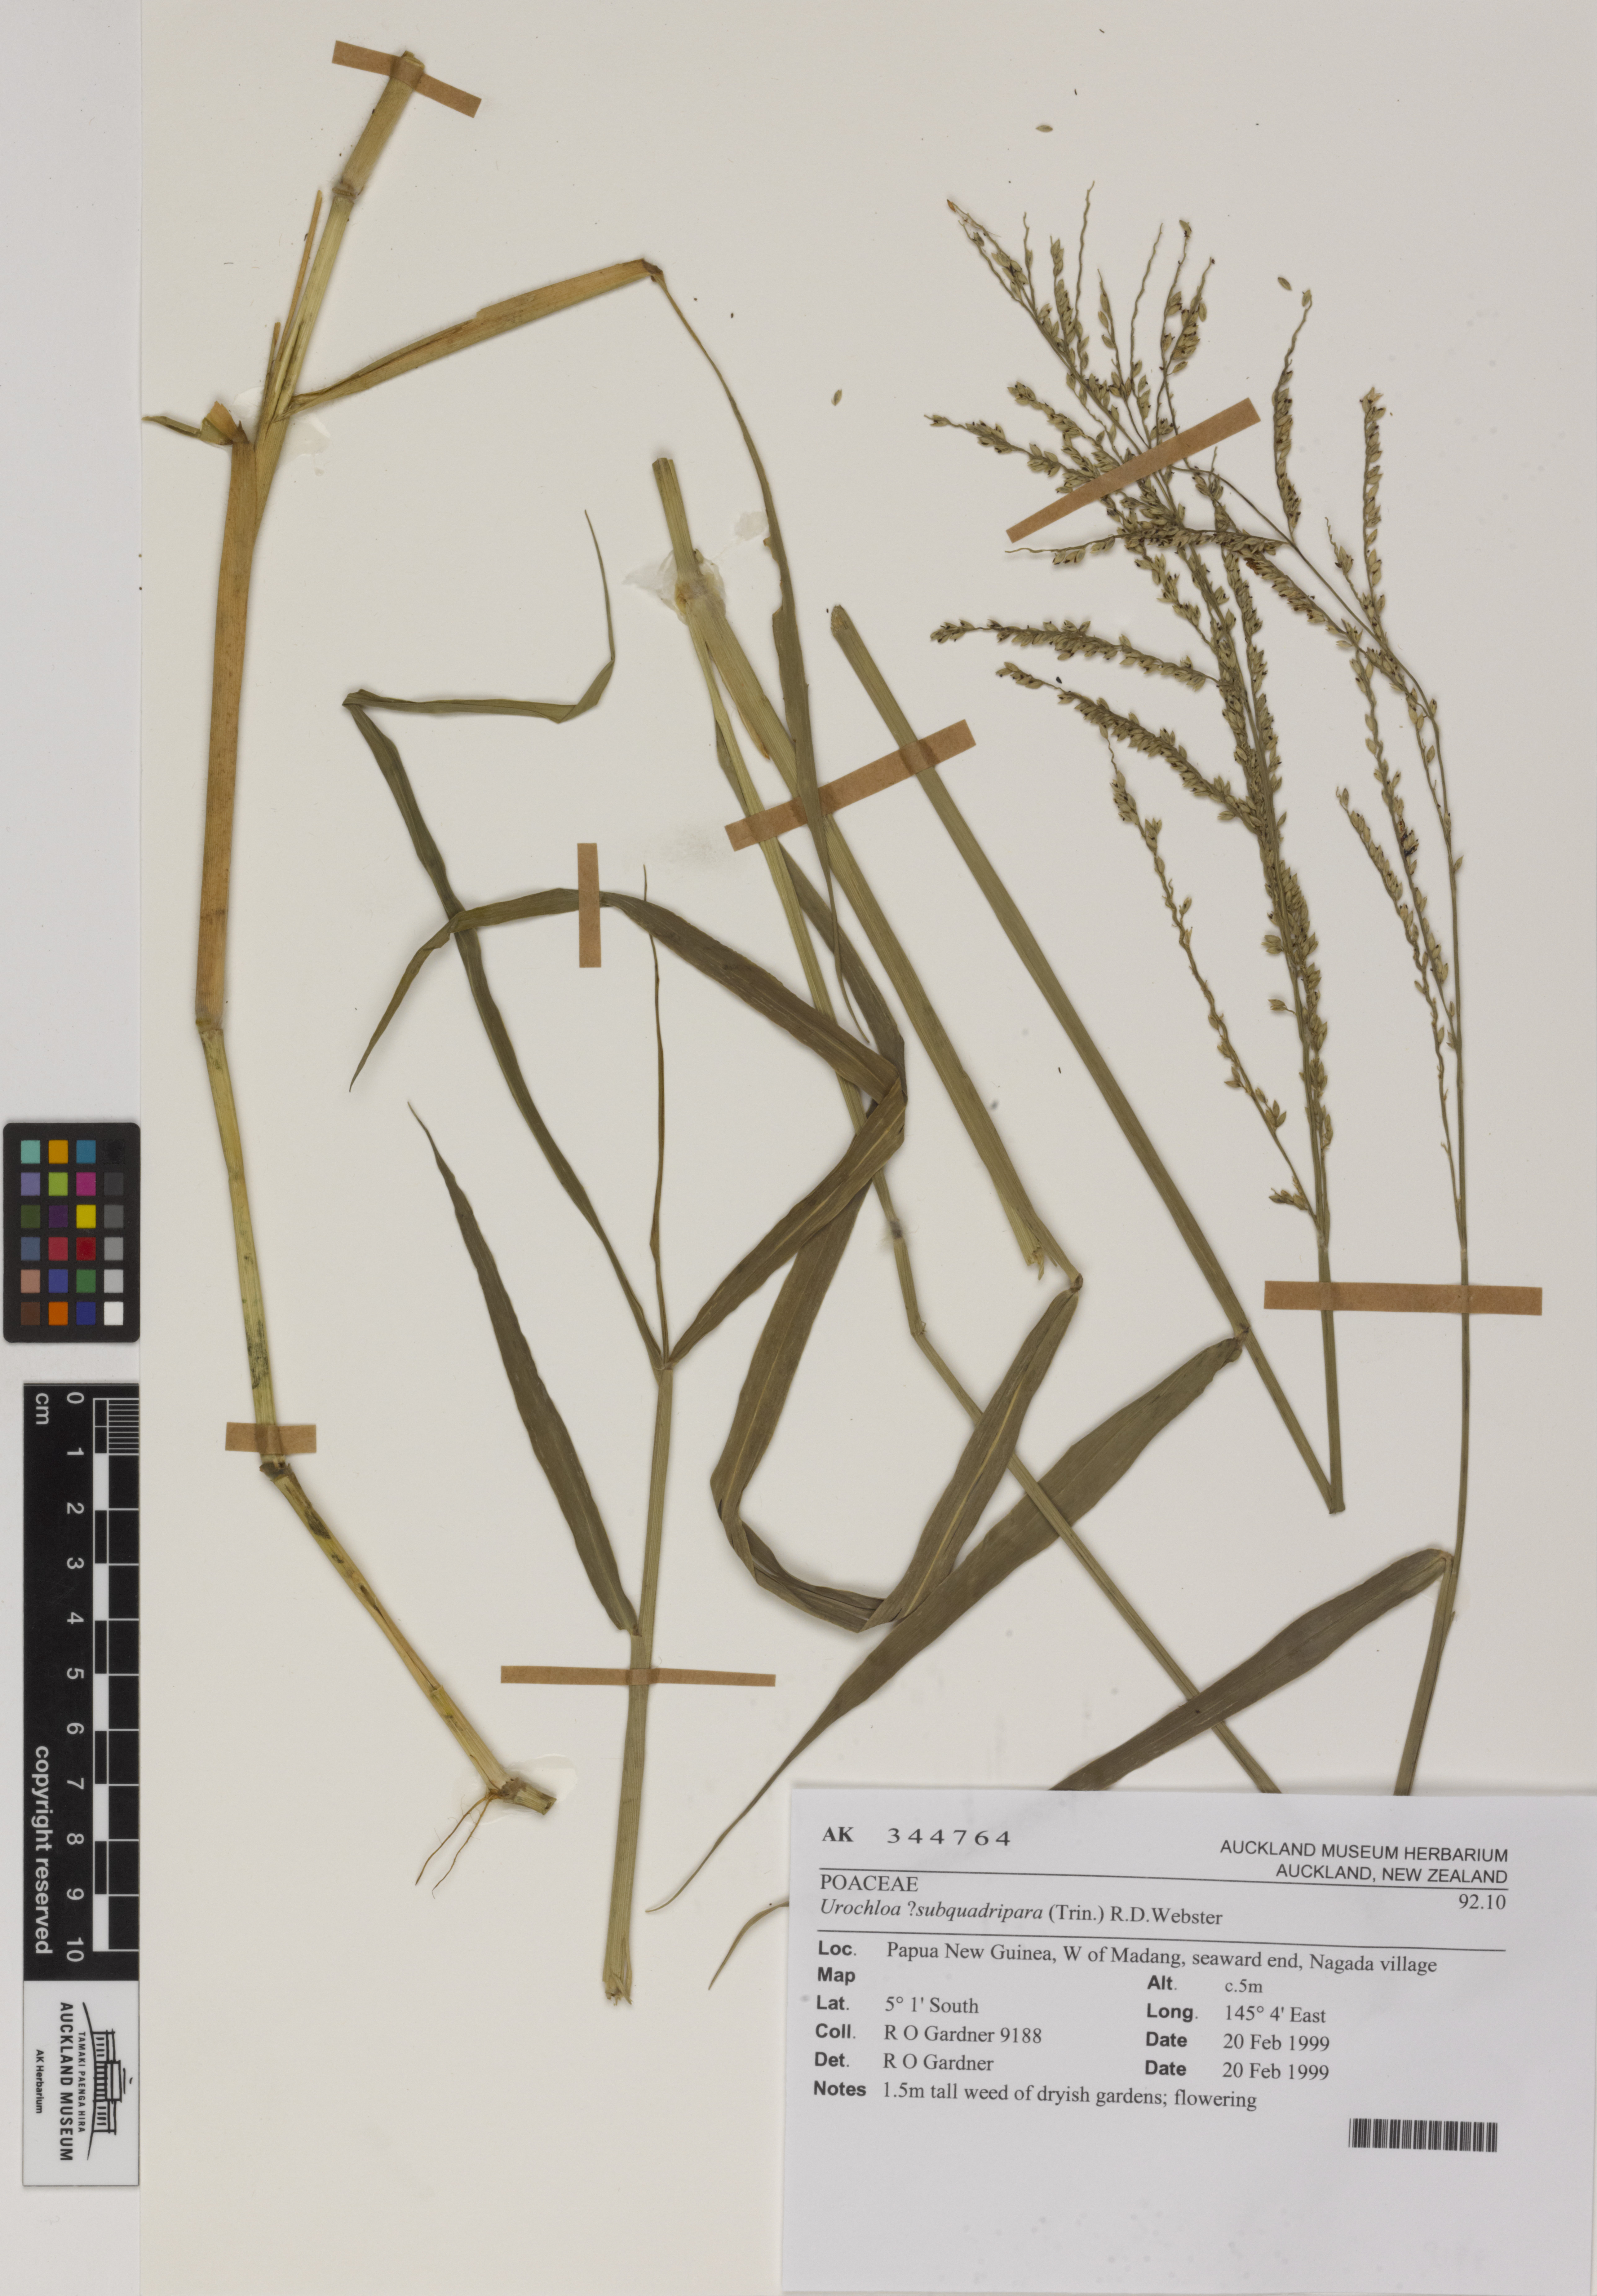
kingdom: Plantae
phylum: Tracheophyta
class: Liliopsida
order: Poales
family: Poaceae
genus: Urochloa
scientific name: Urochloa mutica
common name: Para grass
